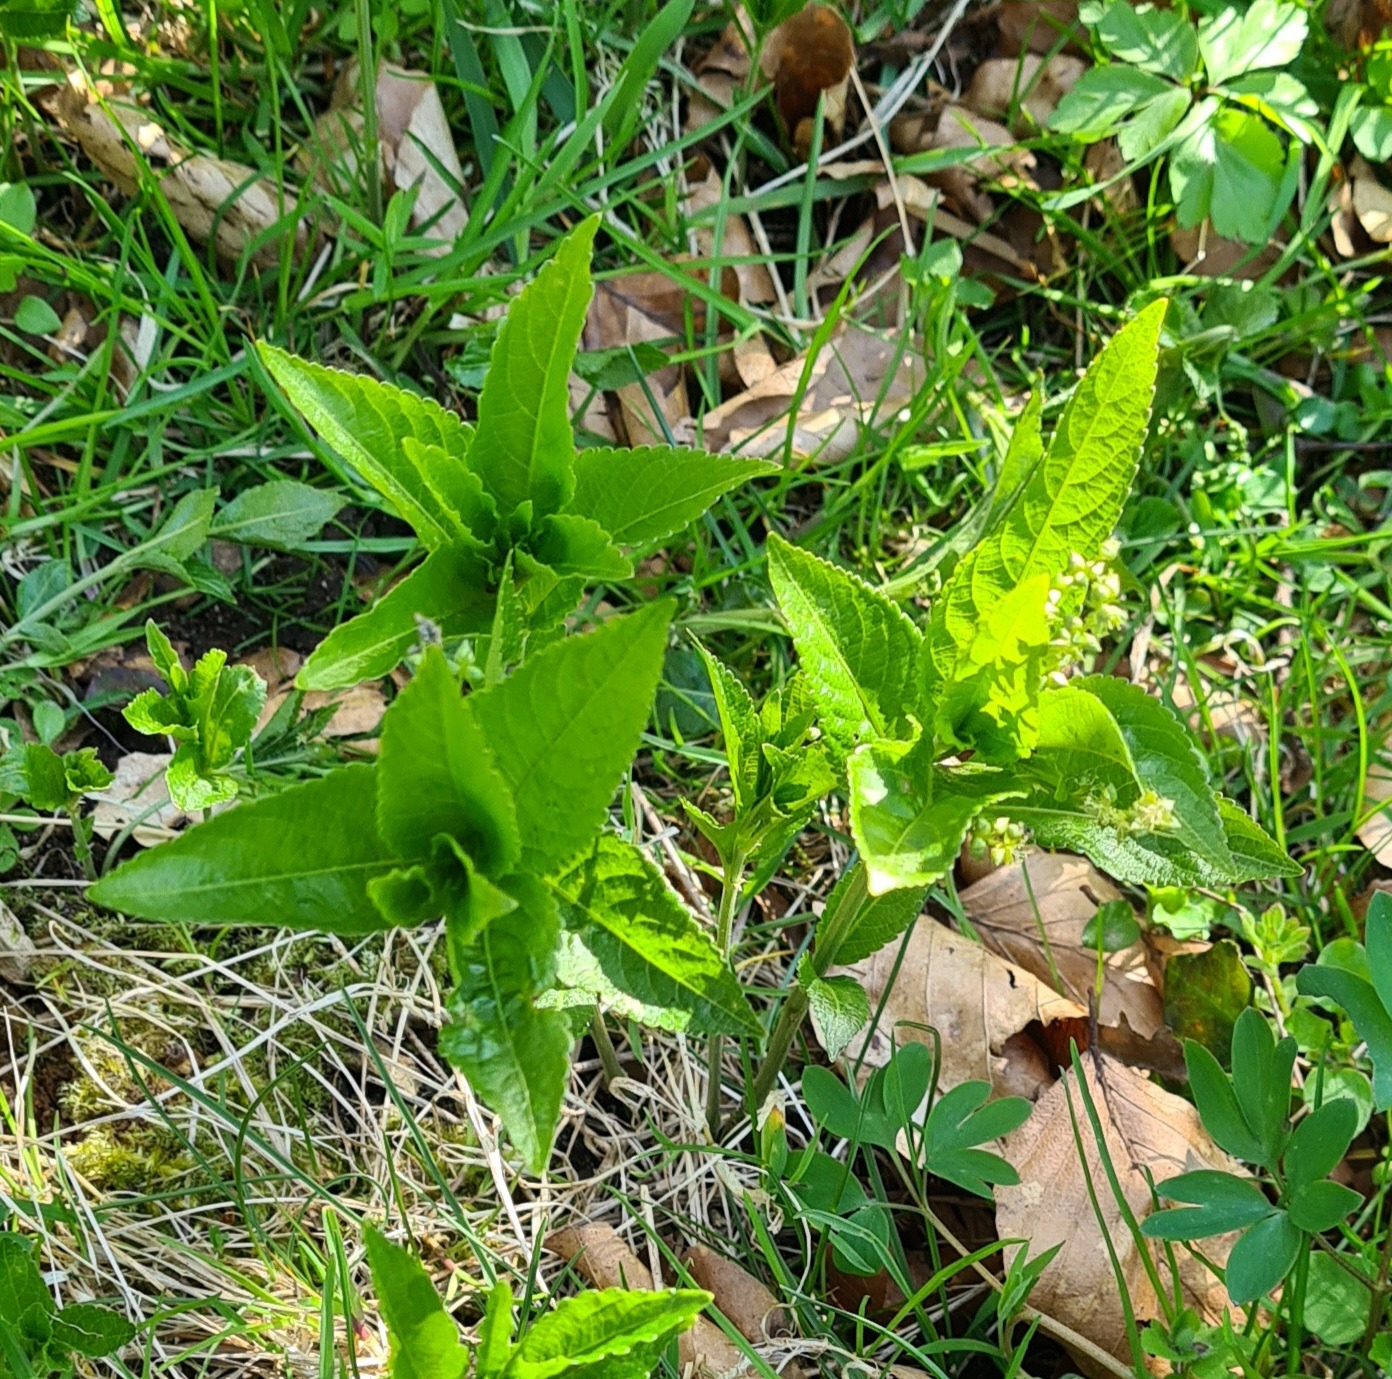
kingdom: Plantae
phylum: Tracheophyta
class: Magnoliopsida
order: Malpighiales
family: Euphorbiaceae
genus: Mercurialis
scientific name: Mercurialis perennis
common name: Almindelig bingelurt
